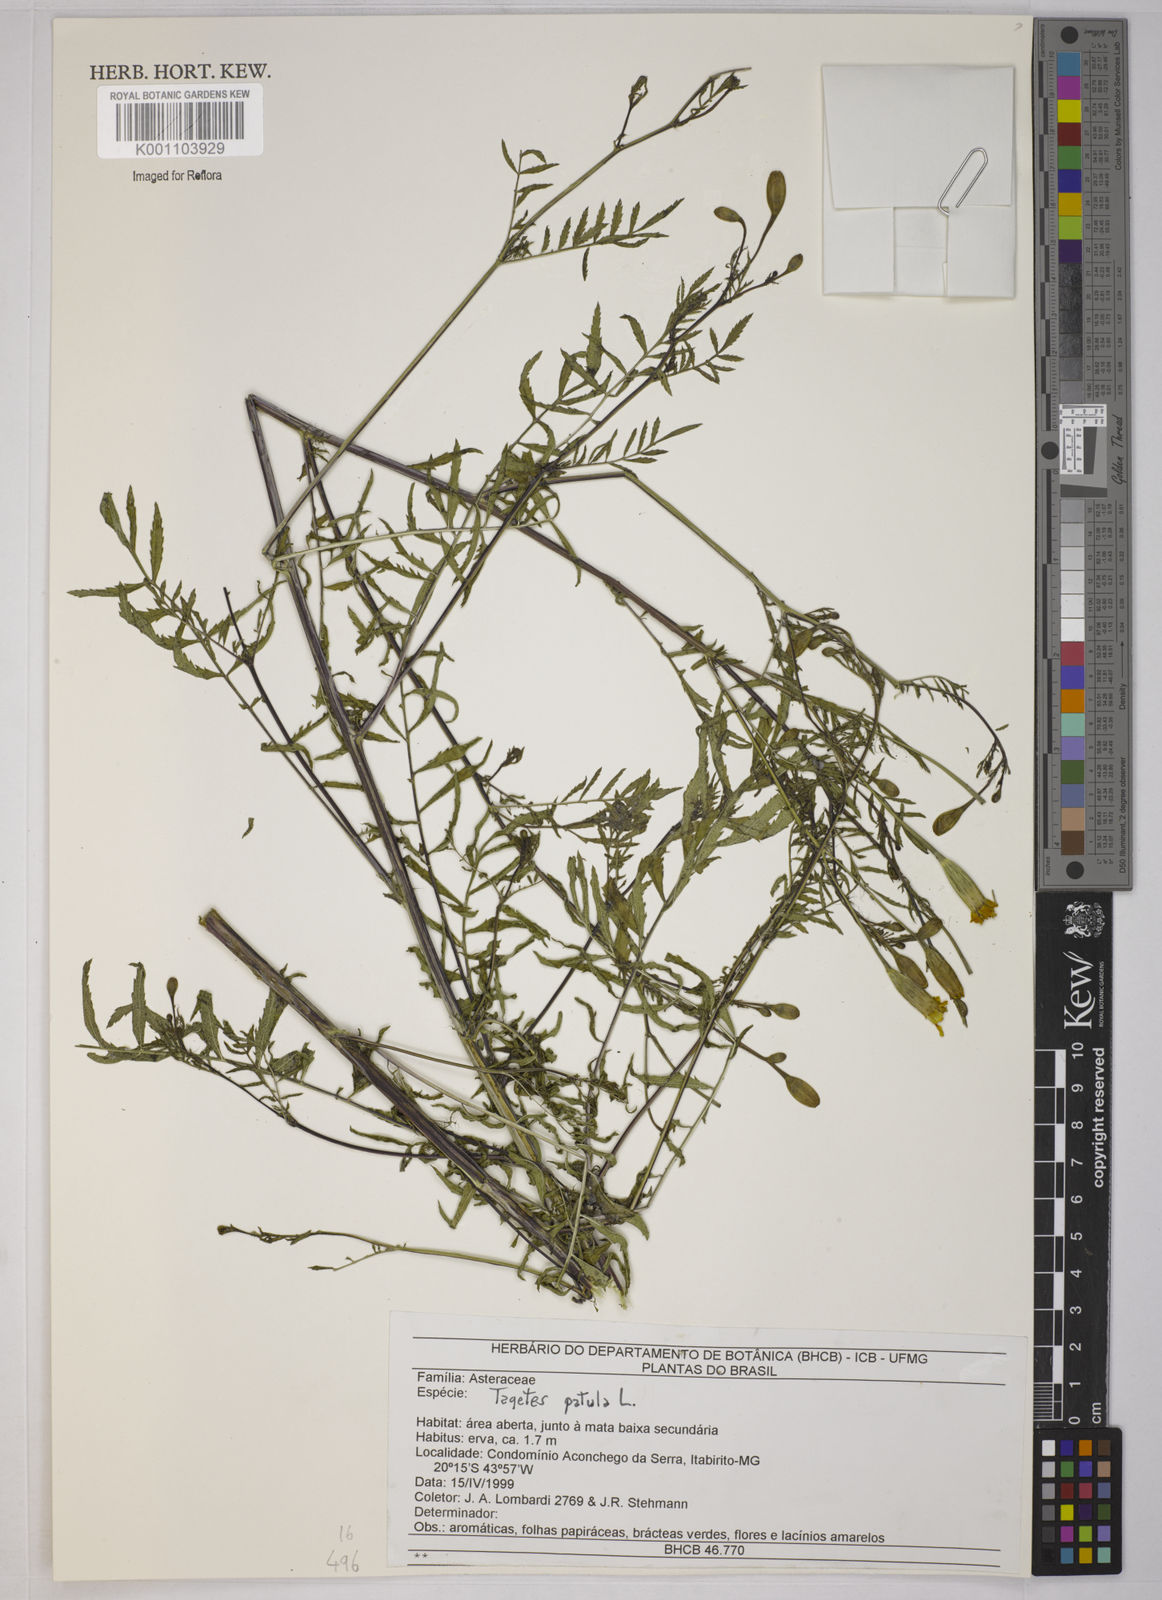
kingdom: Plantae
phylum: Tracheophyta
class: Magnoliopsida
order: Asterales
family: Asteraceae
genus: Tagetes
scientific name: Tagetes erecta
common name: African marigold
